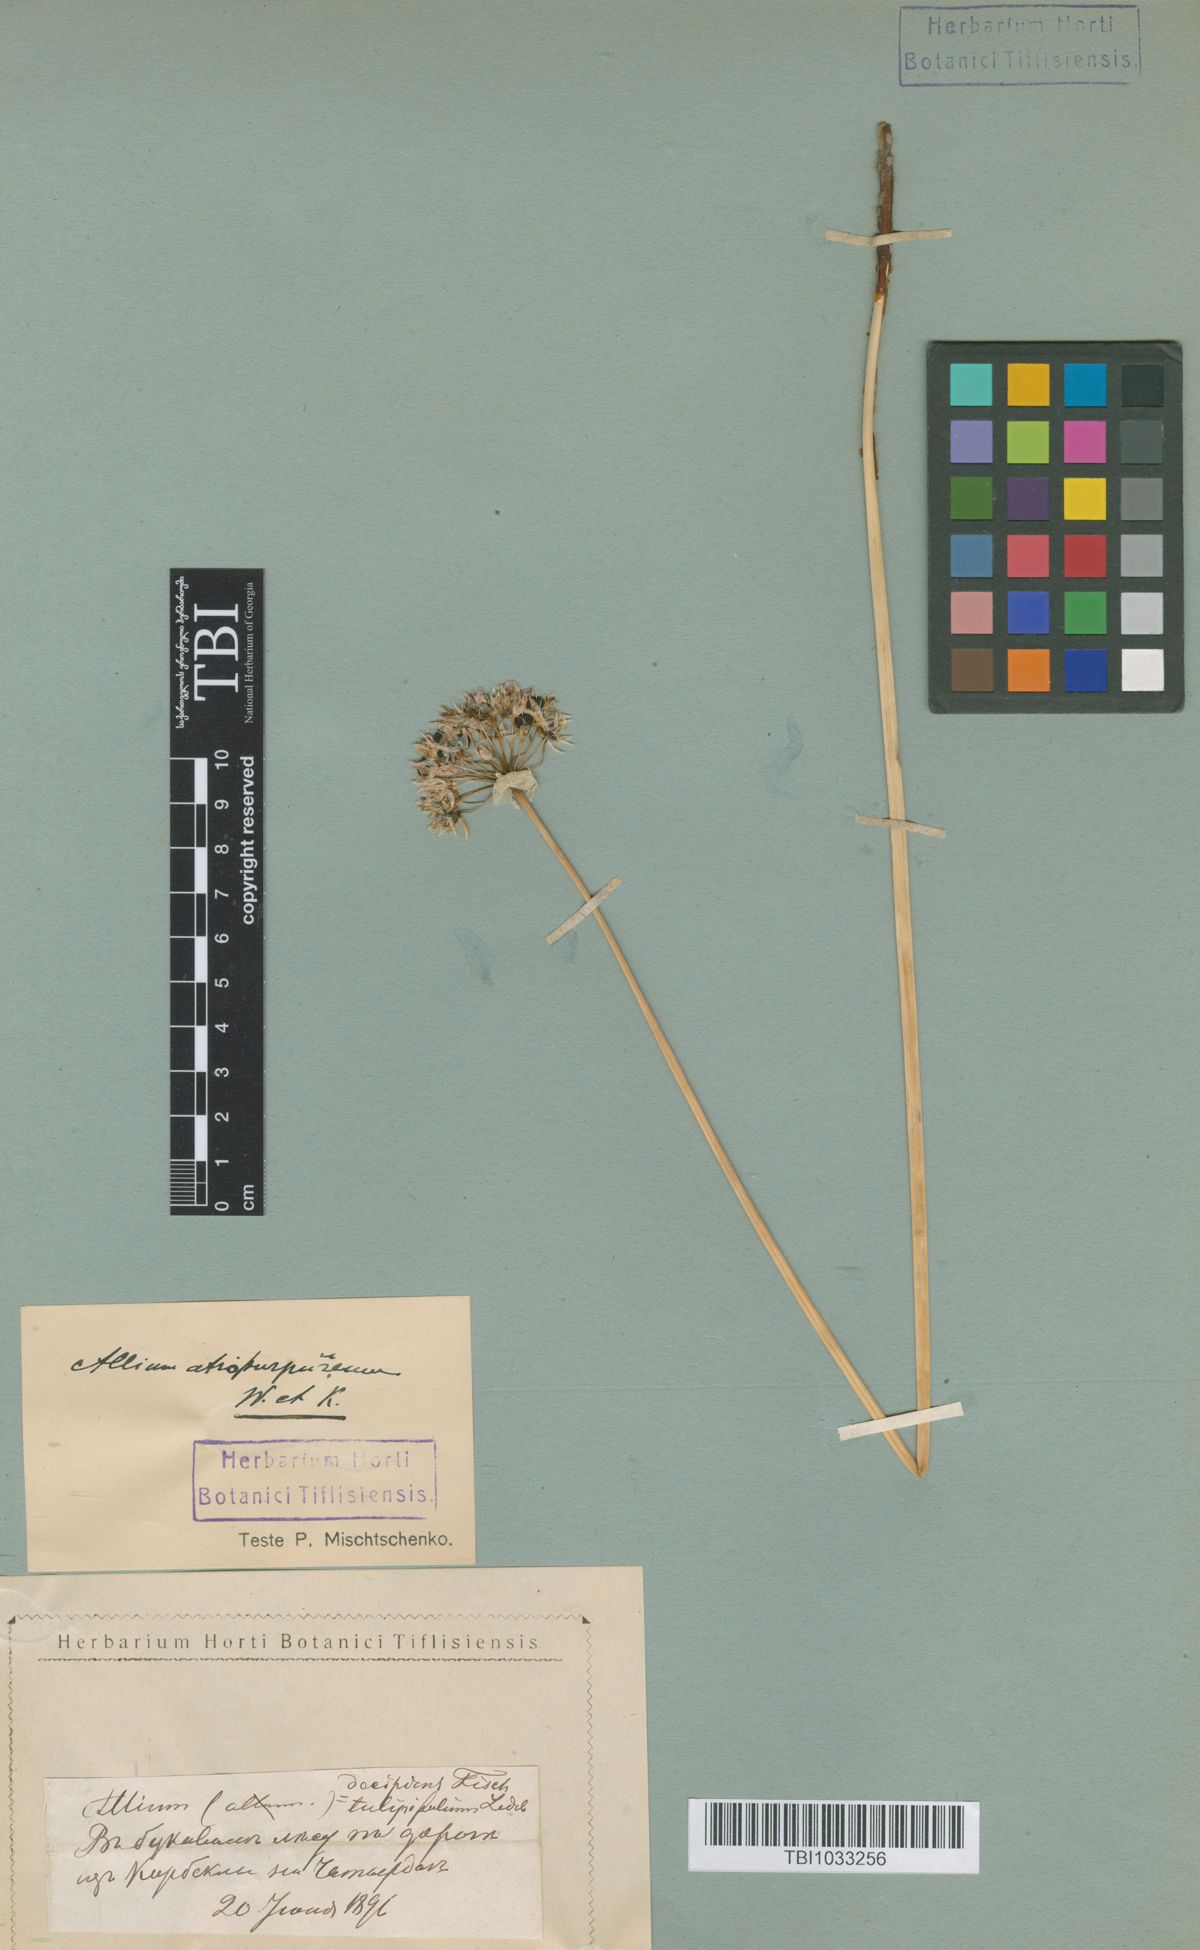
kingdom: Plantae
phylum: Tracheophyta
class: Liliopsida
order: Asparagales
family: Amaryllidaceae
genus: Allium
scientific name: Allium decipiens
